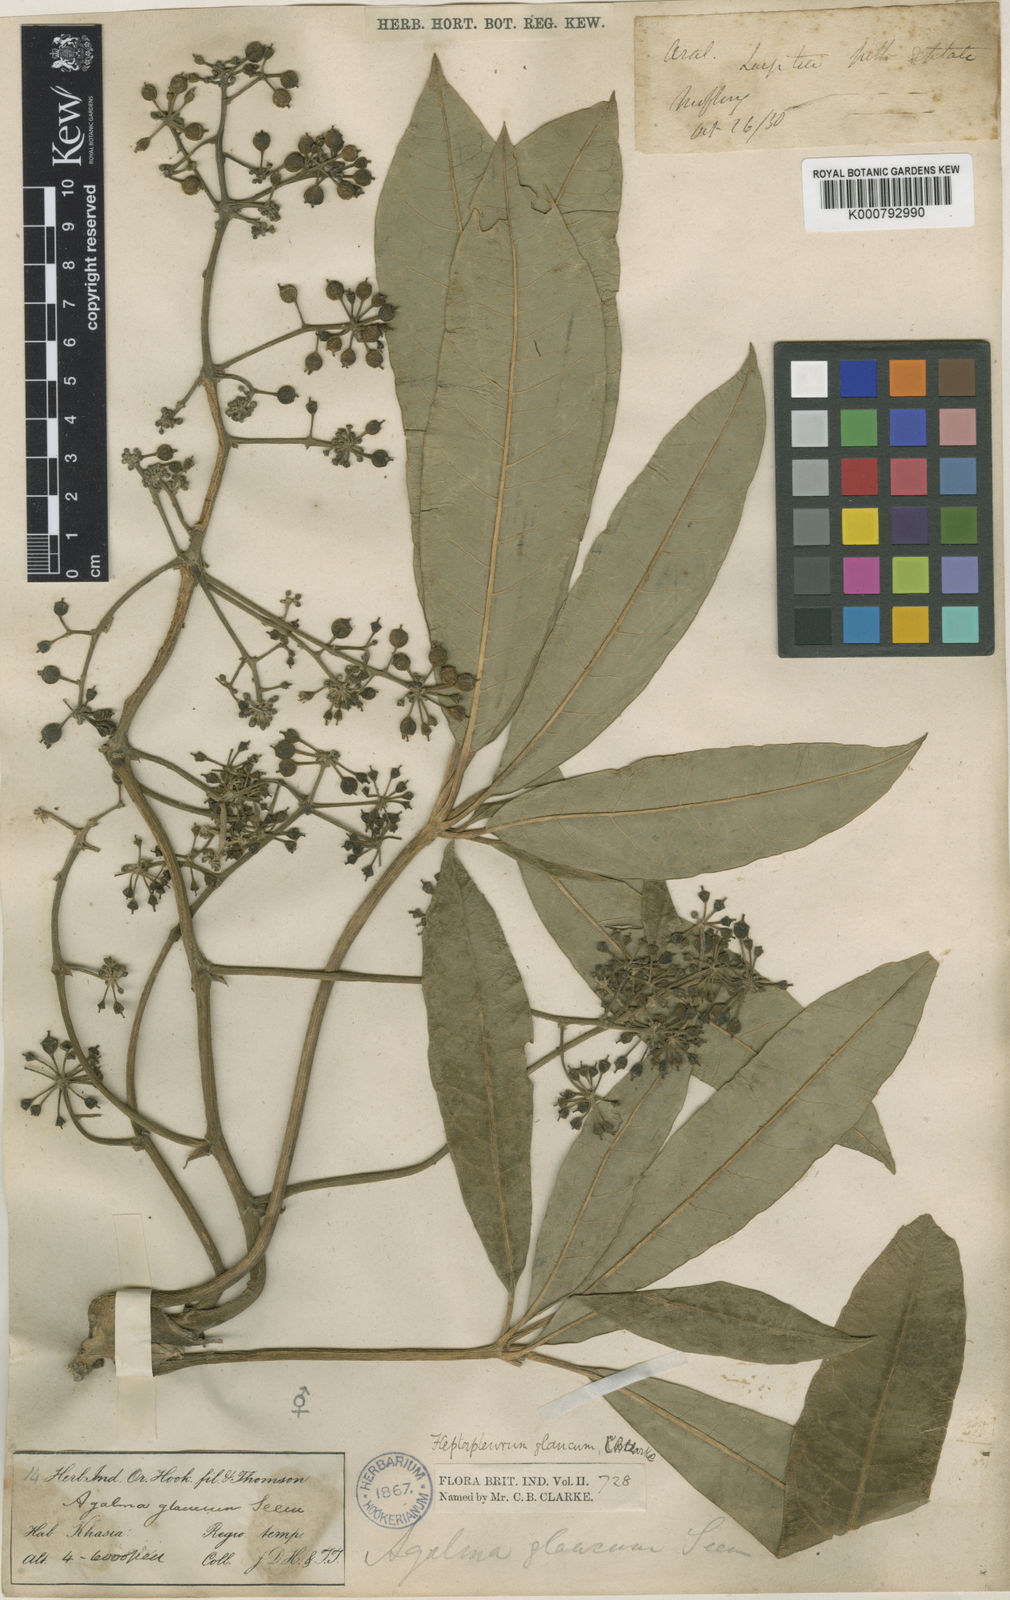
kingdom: Plantae
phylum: Tracheophyta
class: Magnoliopsida
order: Apiales
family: Araliaceae
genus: Heptapleurum
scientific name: Heptapleurum rhododendrifolium
